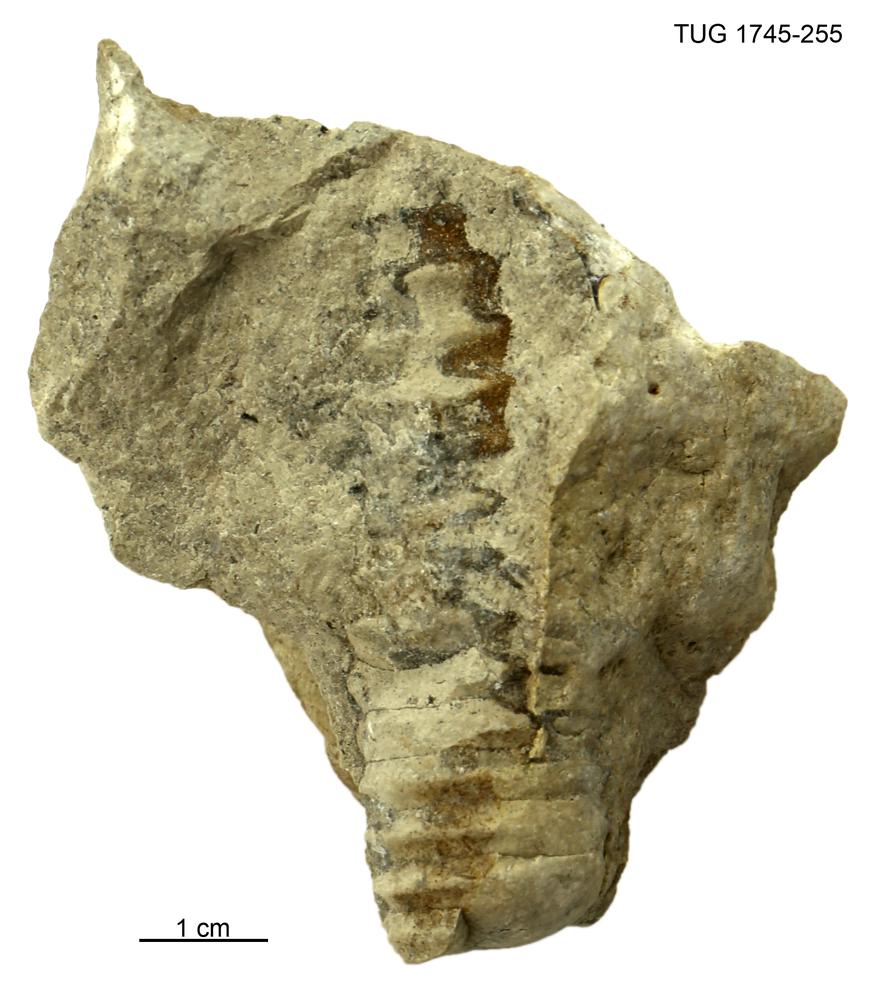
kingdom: Animalia
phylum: Mollusca
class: Cephalopoda
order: Nautilida
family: Nautilidae
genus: Dawsonoceras
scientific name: Dawsonoceras
